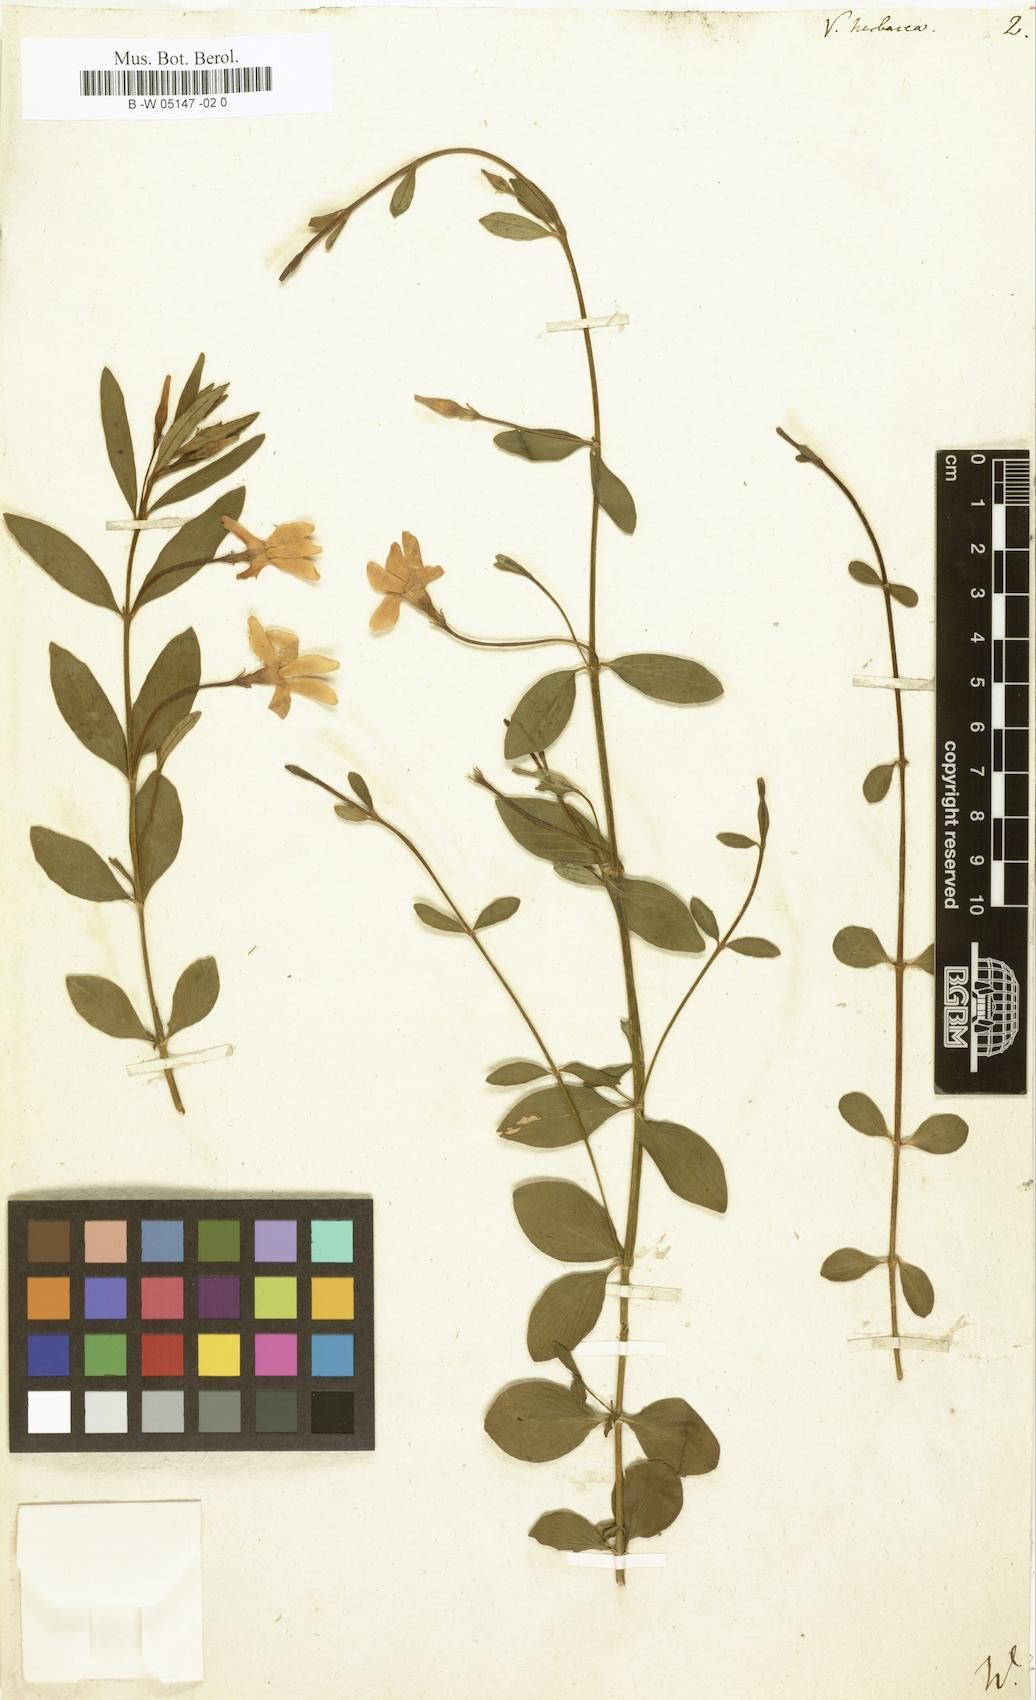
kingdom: Plantae
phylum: Tracheophyta
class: Magnoliopsida
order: Gentianales
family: Apocynaceae
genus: Vinca
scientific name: Vinca herbacea
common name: Herbaceous periwinkle
